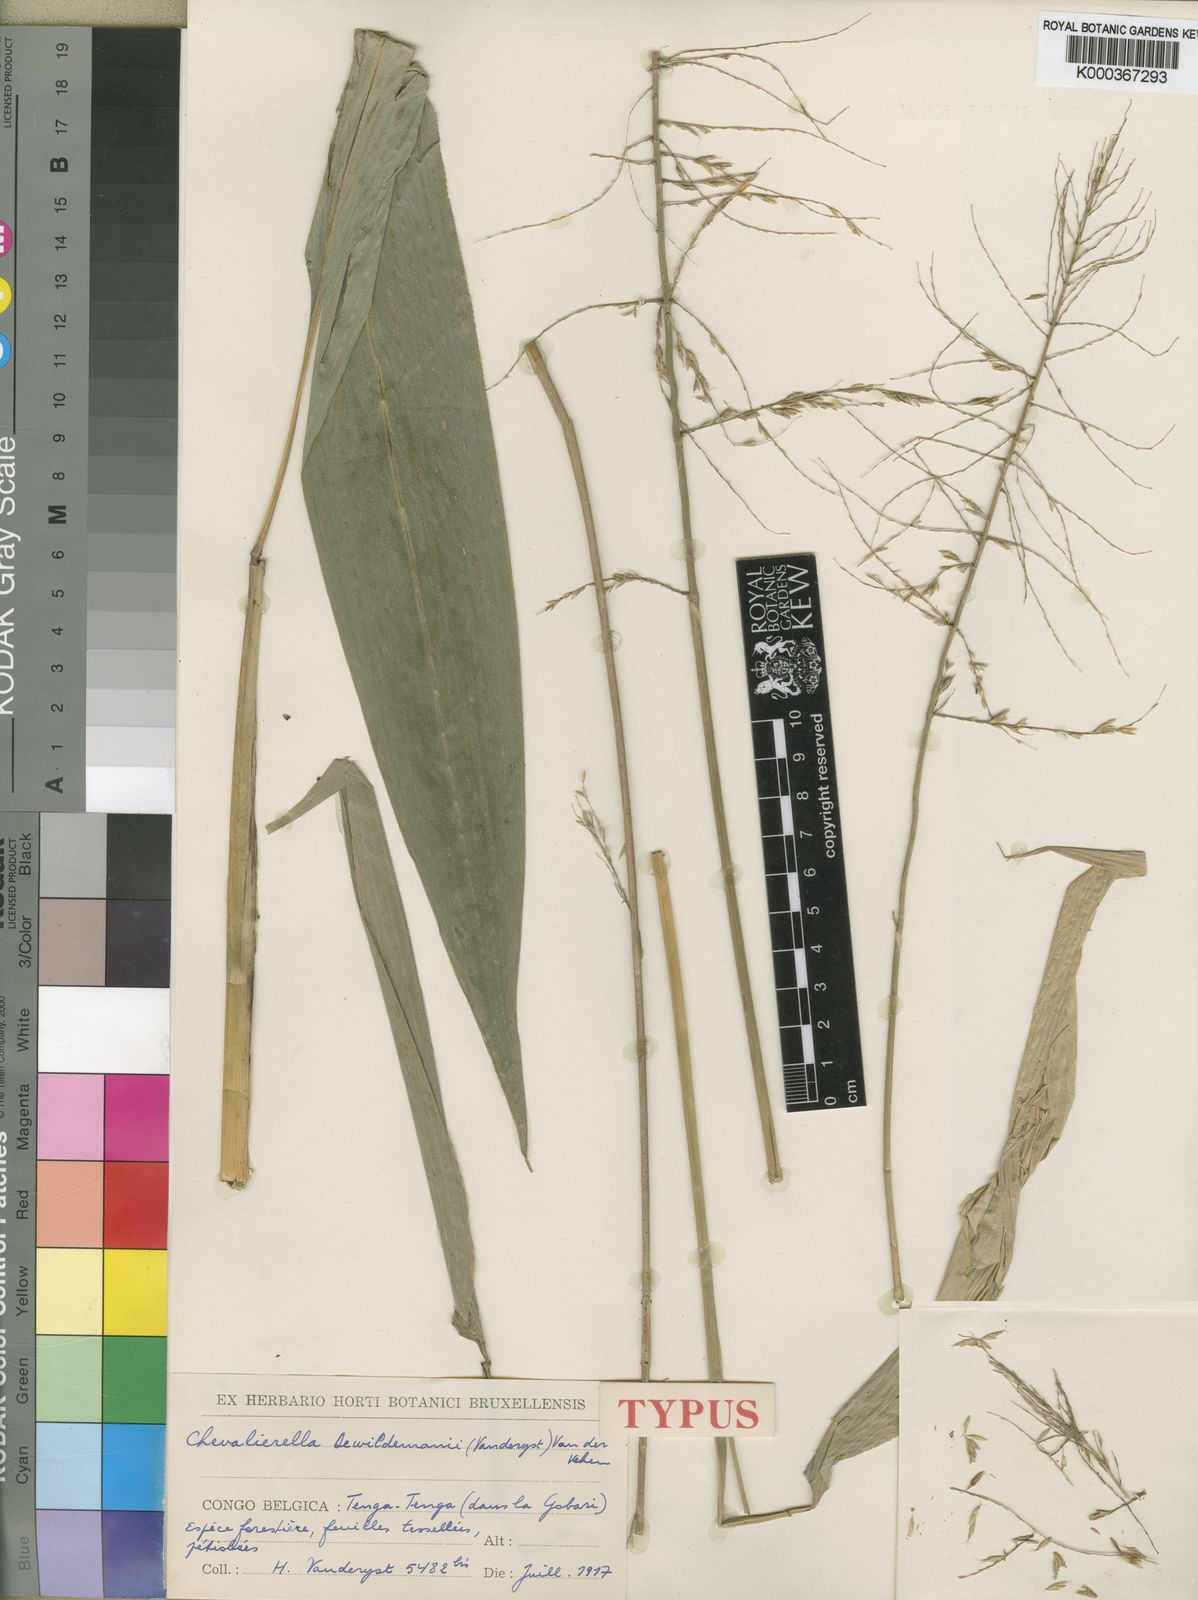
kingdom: Plantae
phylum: Tracheophyta
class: Liliopsida
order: Poales
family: Poaceae
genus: Chevalierella
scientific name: Chevalierella
